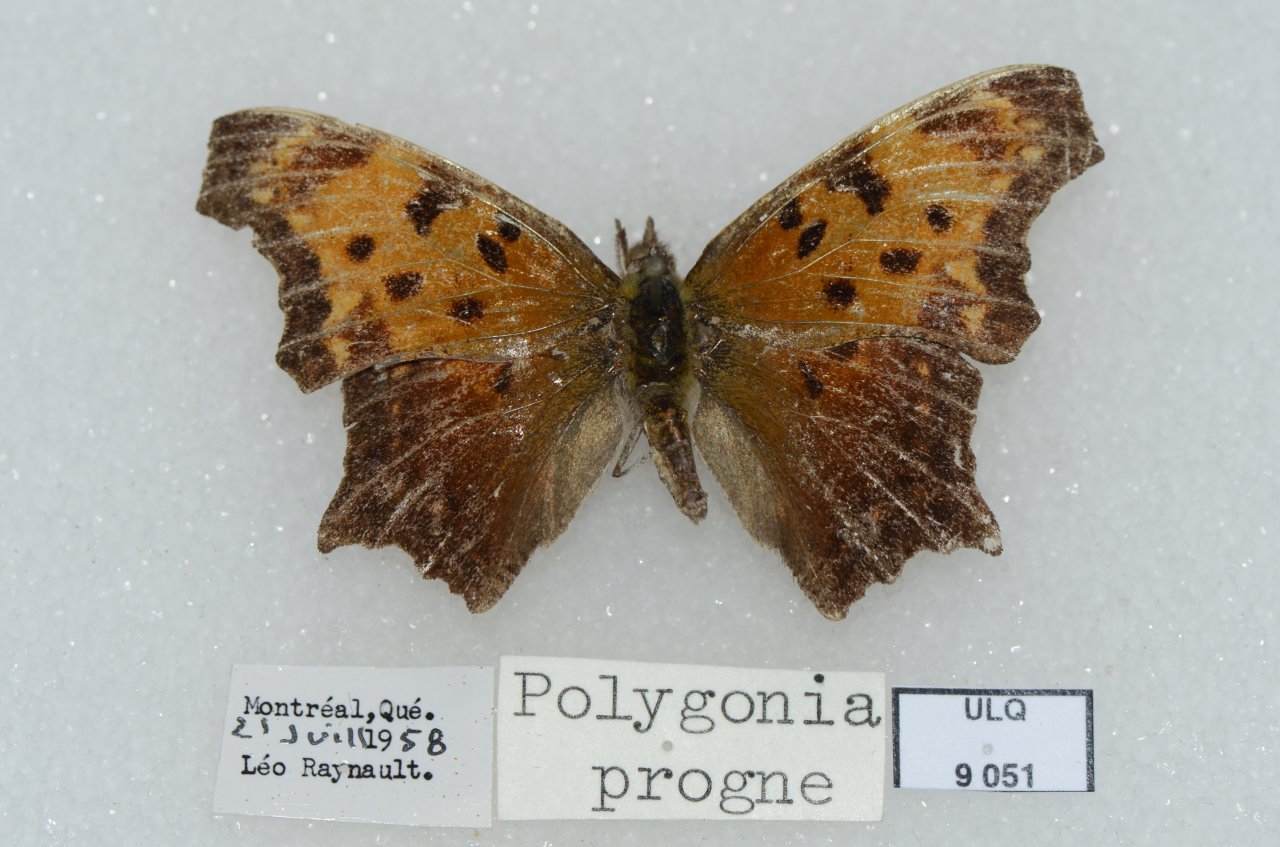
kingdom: Animalia
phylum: Arthropoda
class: Insecta
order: Lepidoptera
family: Nymphalidae
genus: Polygonia
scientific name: Polygonia progne
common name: Gray Comma
